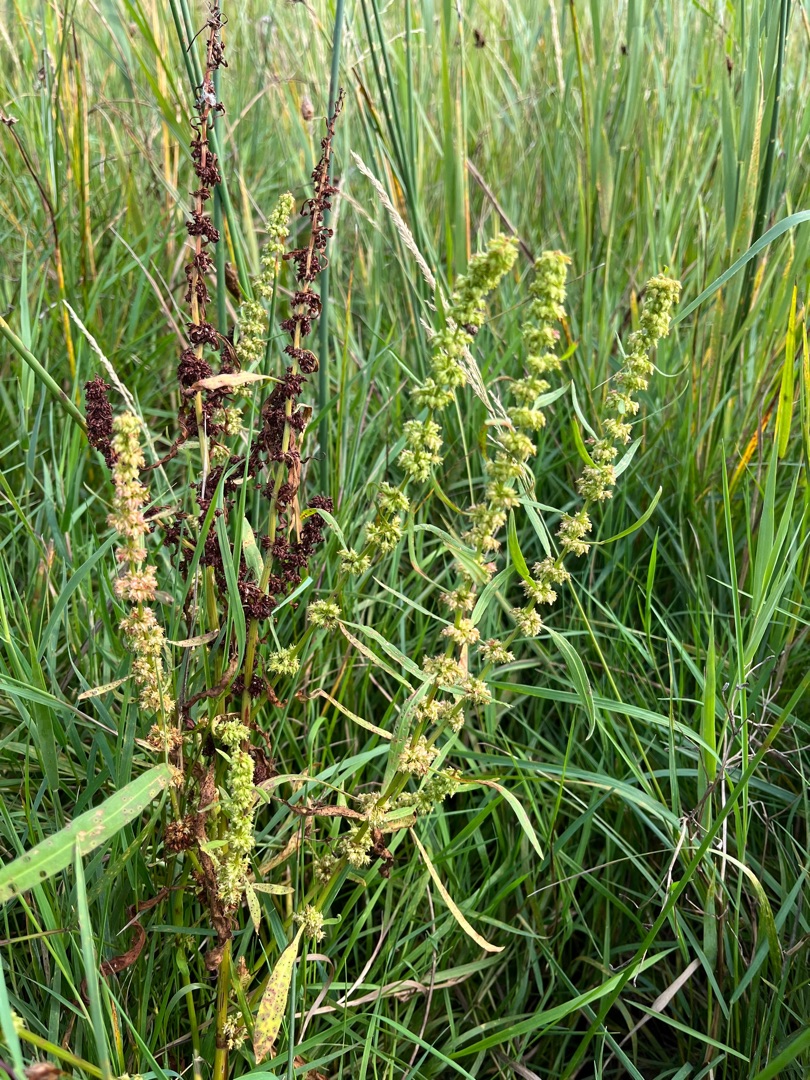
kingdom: Plantae
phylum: Tracheophyta
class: Magnoliopsida
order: Caryophyllales
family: Polygonaceae
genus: Rumex
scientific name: Rumex palustris
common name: Sump-skræppe
